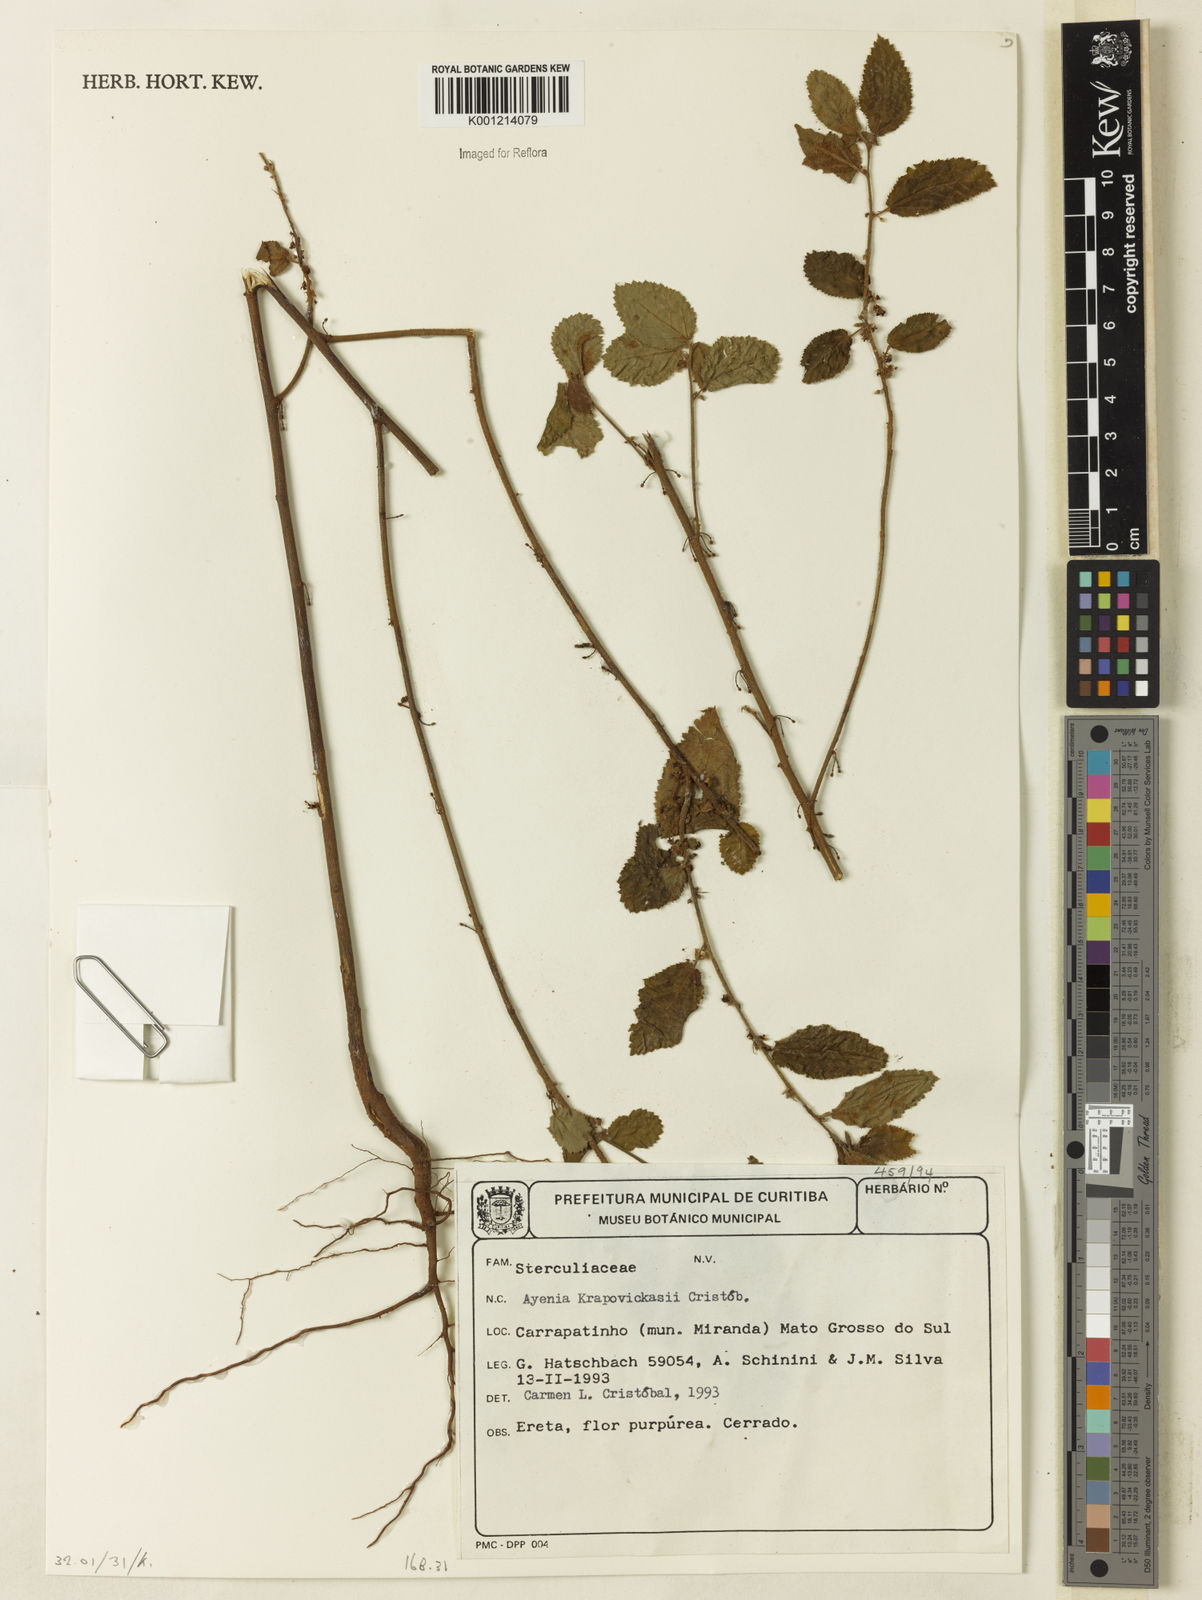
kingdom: Plantae
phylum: Tracheophyta
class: Magnoliopsida
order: Malvales
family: Malvaceae
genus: Ayenia
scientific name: Ayenia
